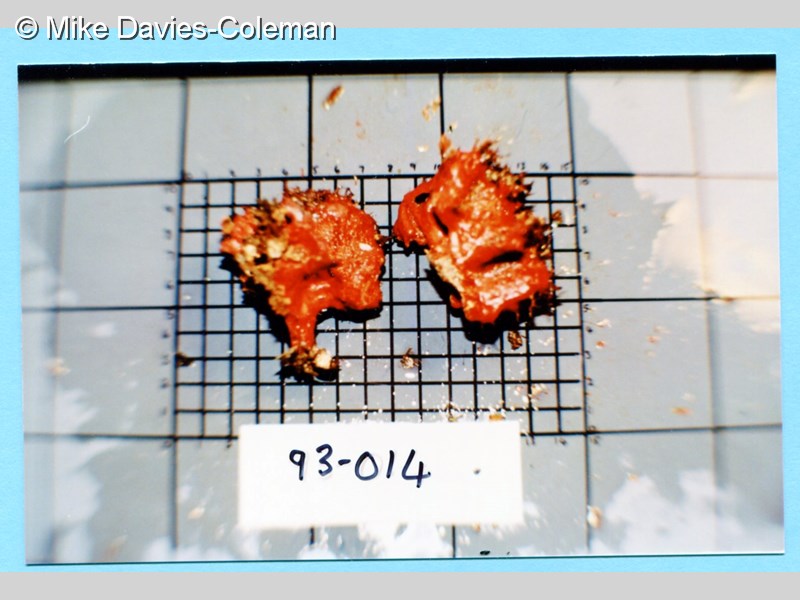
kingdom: Animalia
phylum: Porifera
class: Demospongiae
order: Poecilosclerida
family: Microcionidae
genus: Clathria
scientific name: Clathria
